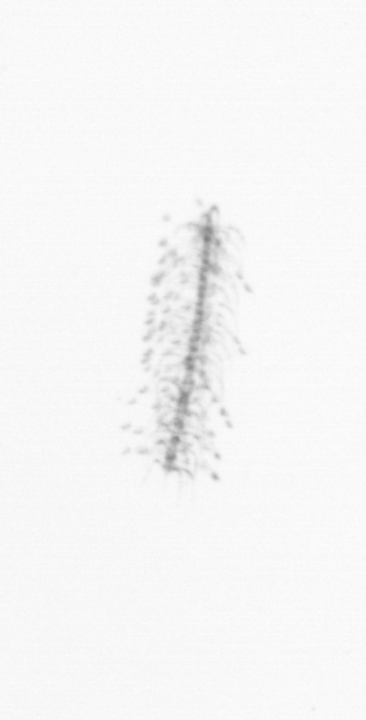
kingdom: Chromista
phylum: Ochrophyta
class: Bacillariophyceae
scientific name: Bacillariophyceae
